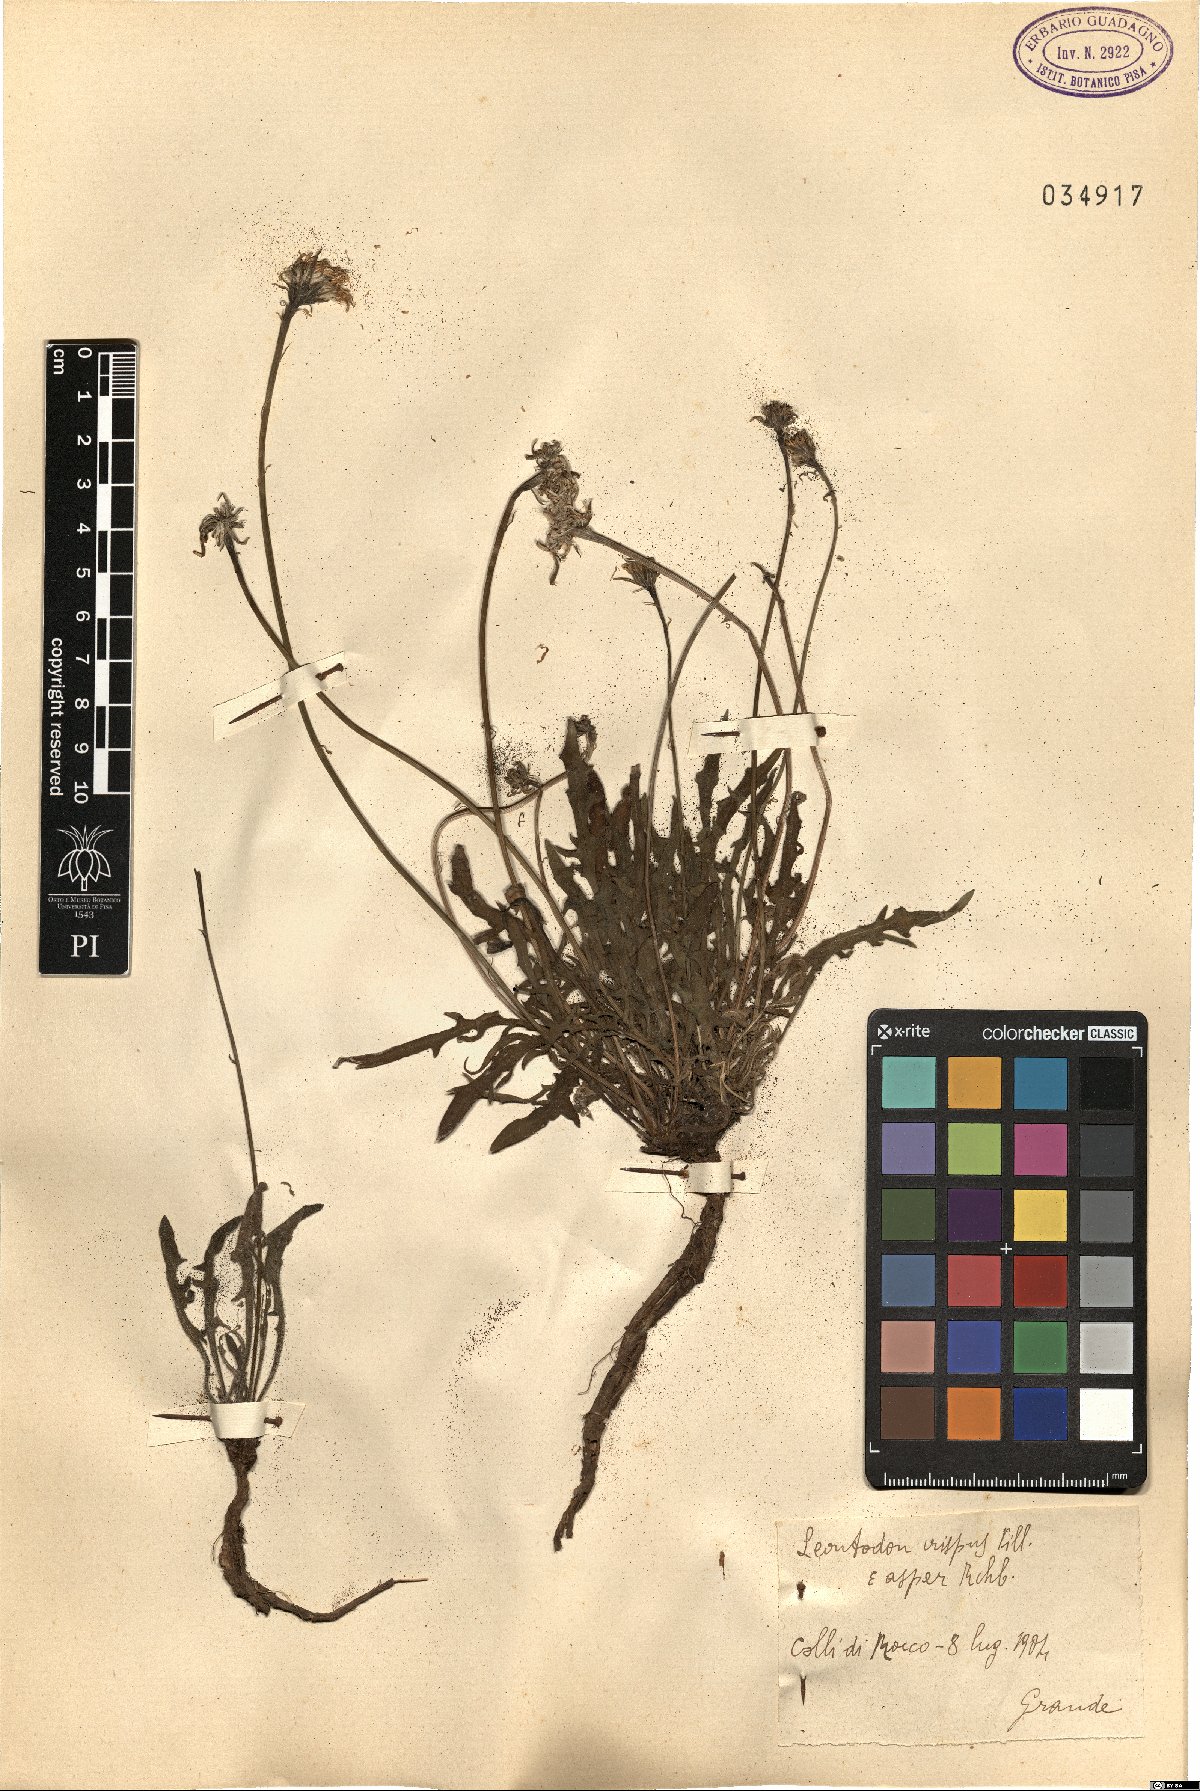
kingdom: Plantae
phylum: Tracheophyta
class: Magnoliopsida
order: Asterales
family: Asteraceae
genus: Leontodon
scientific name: Leontodon biscutellifolius
